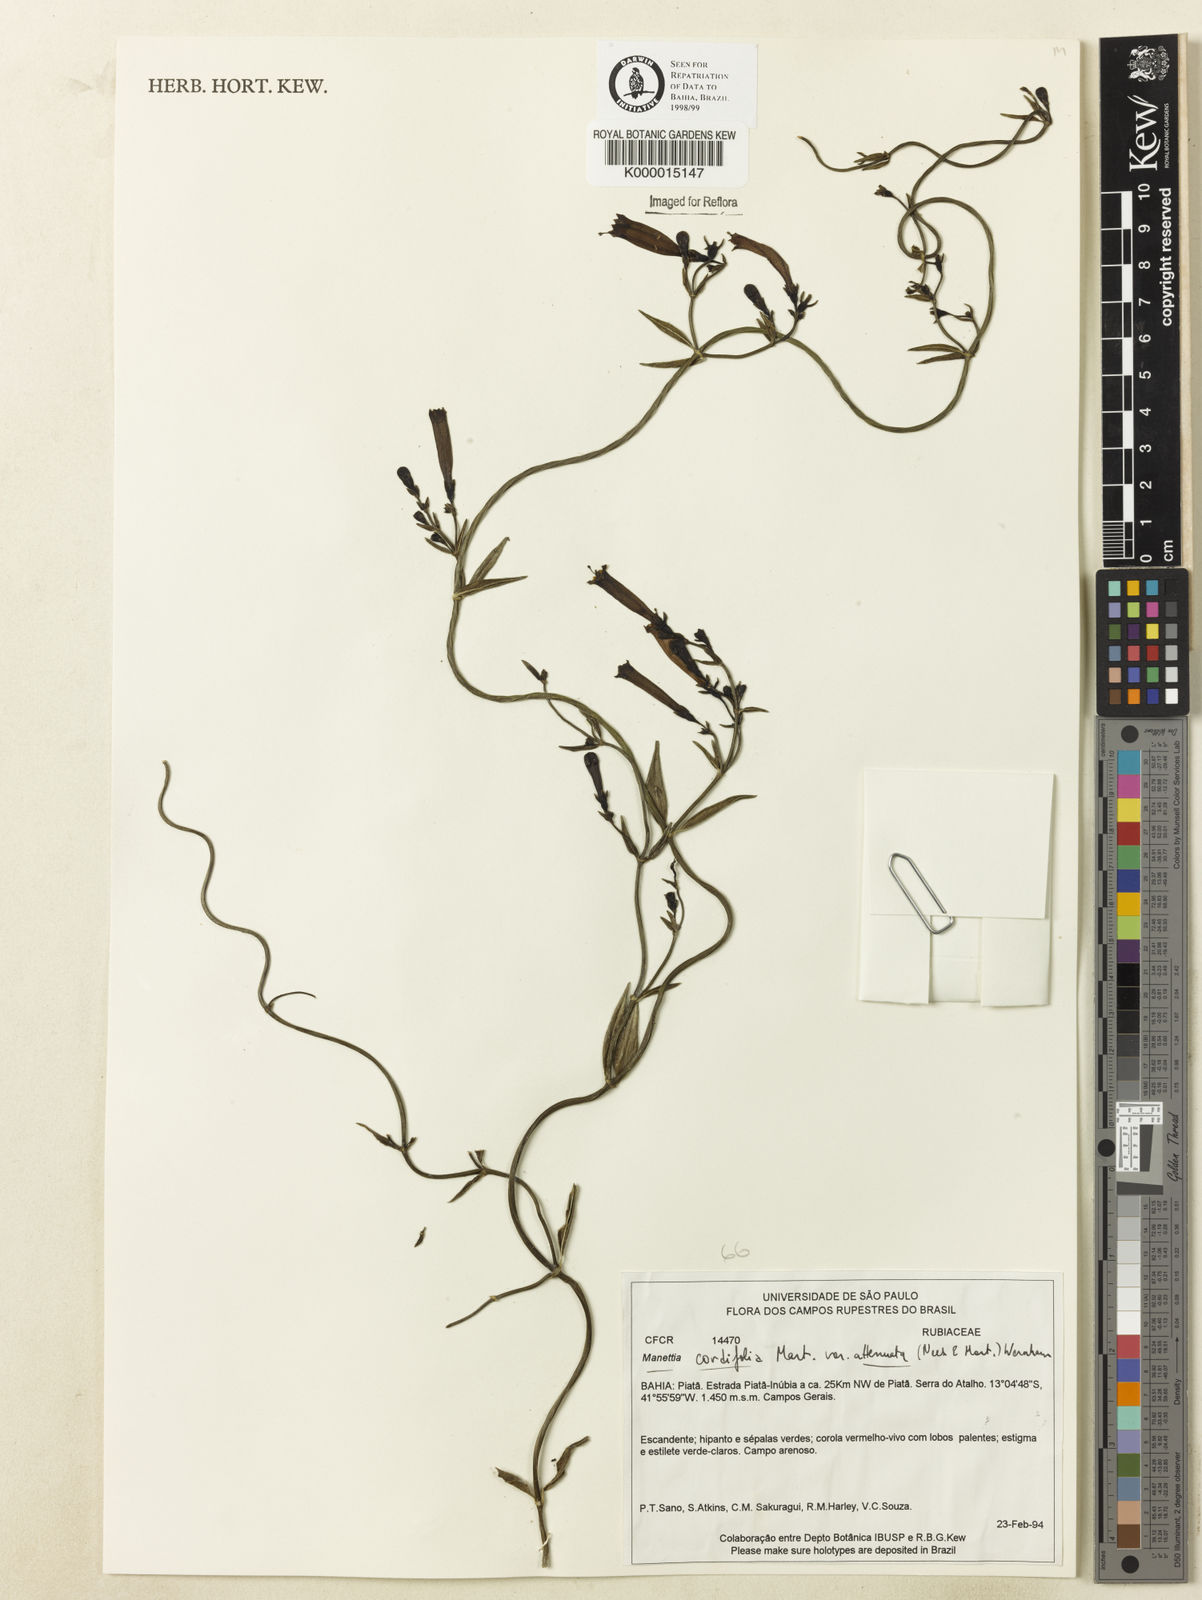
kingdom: Plantae
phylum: Tracheophyta
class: Magnoliopsida
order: Gentianales
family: Rubiaceae
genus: Manettia
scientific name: Manettia cordifolia
